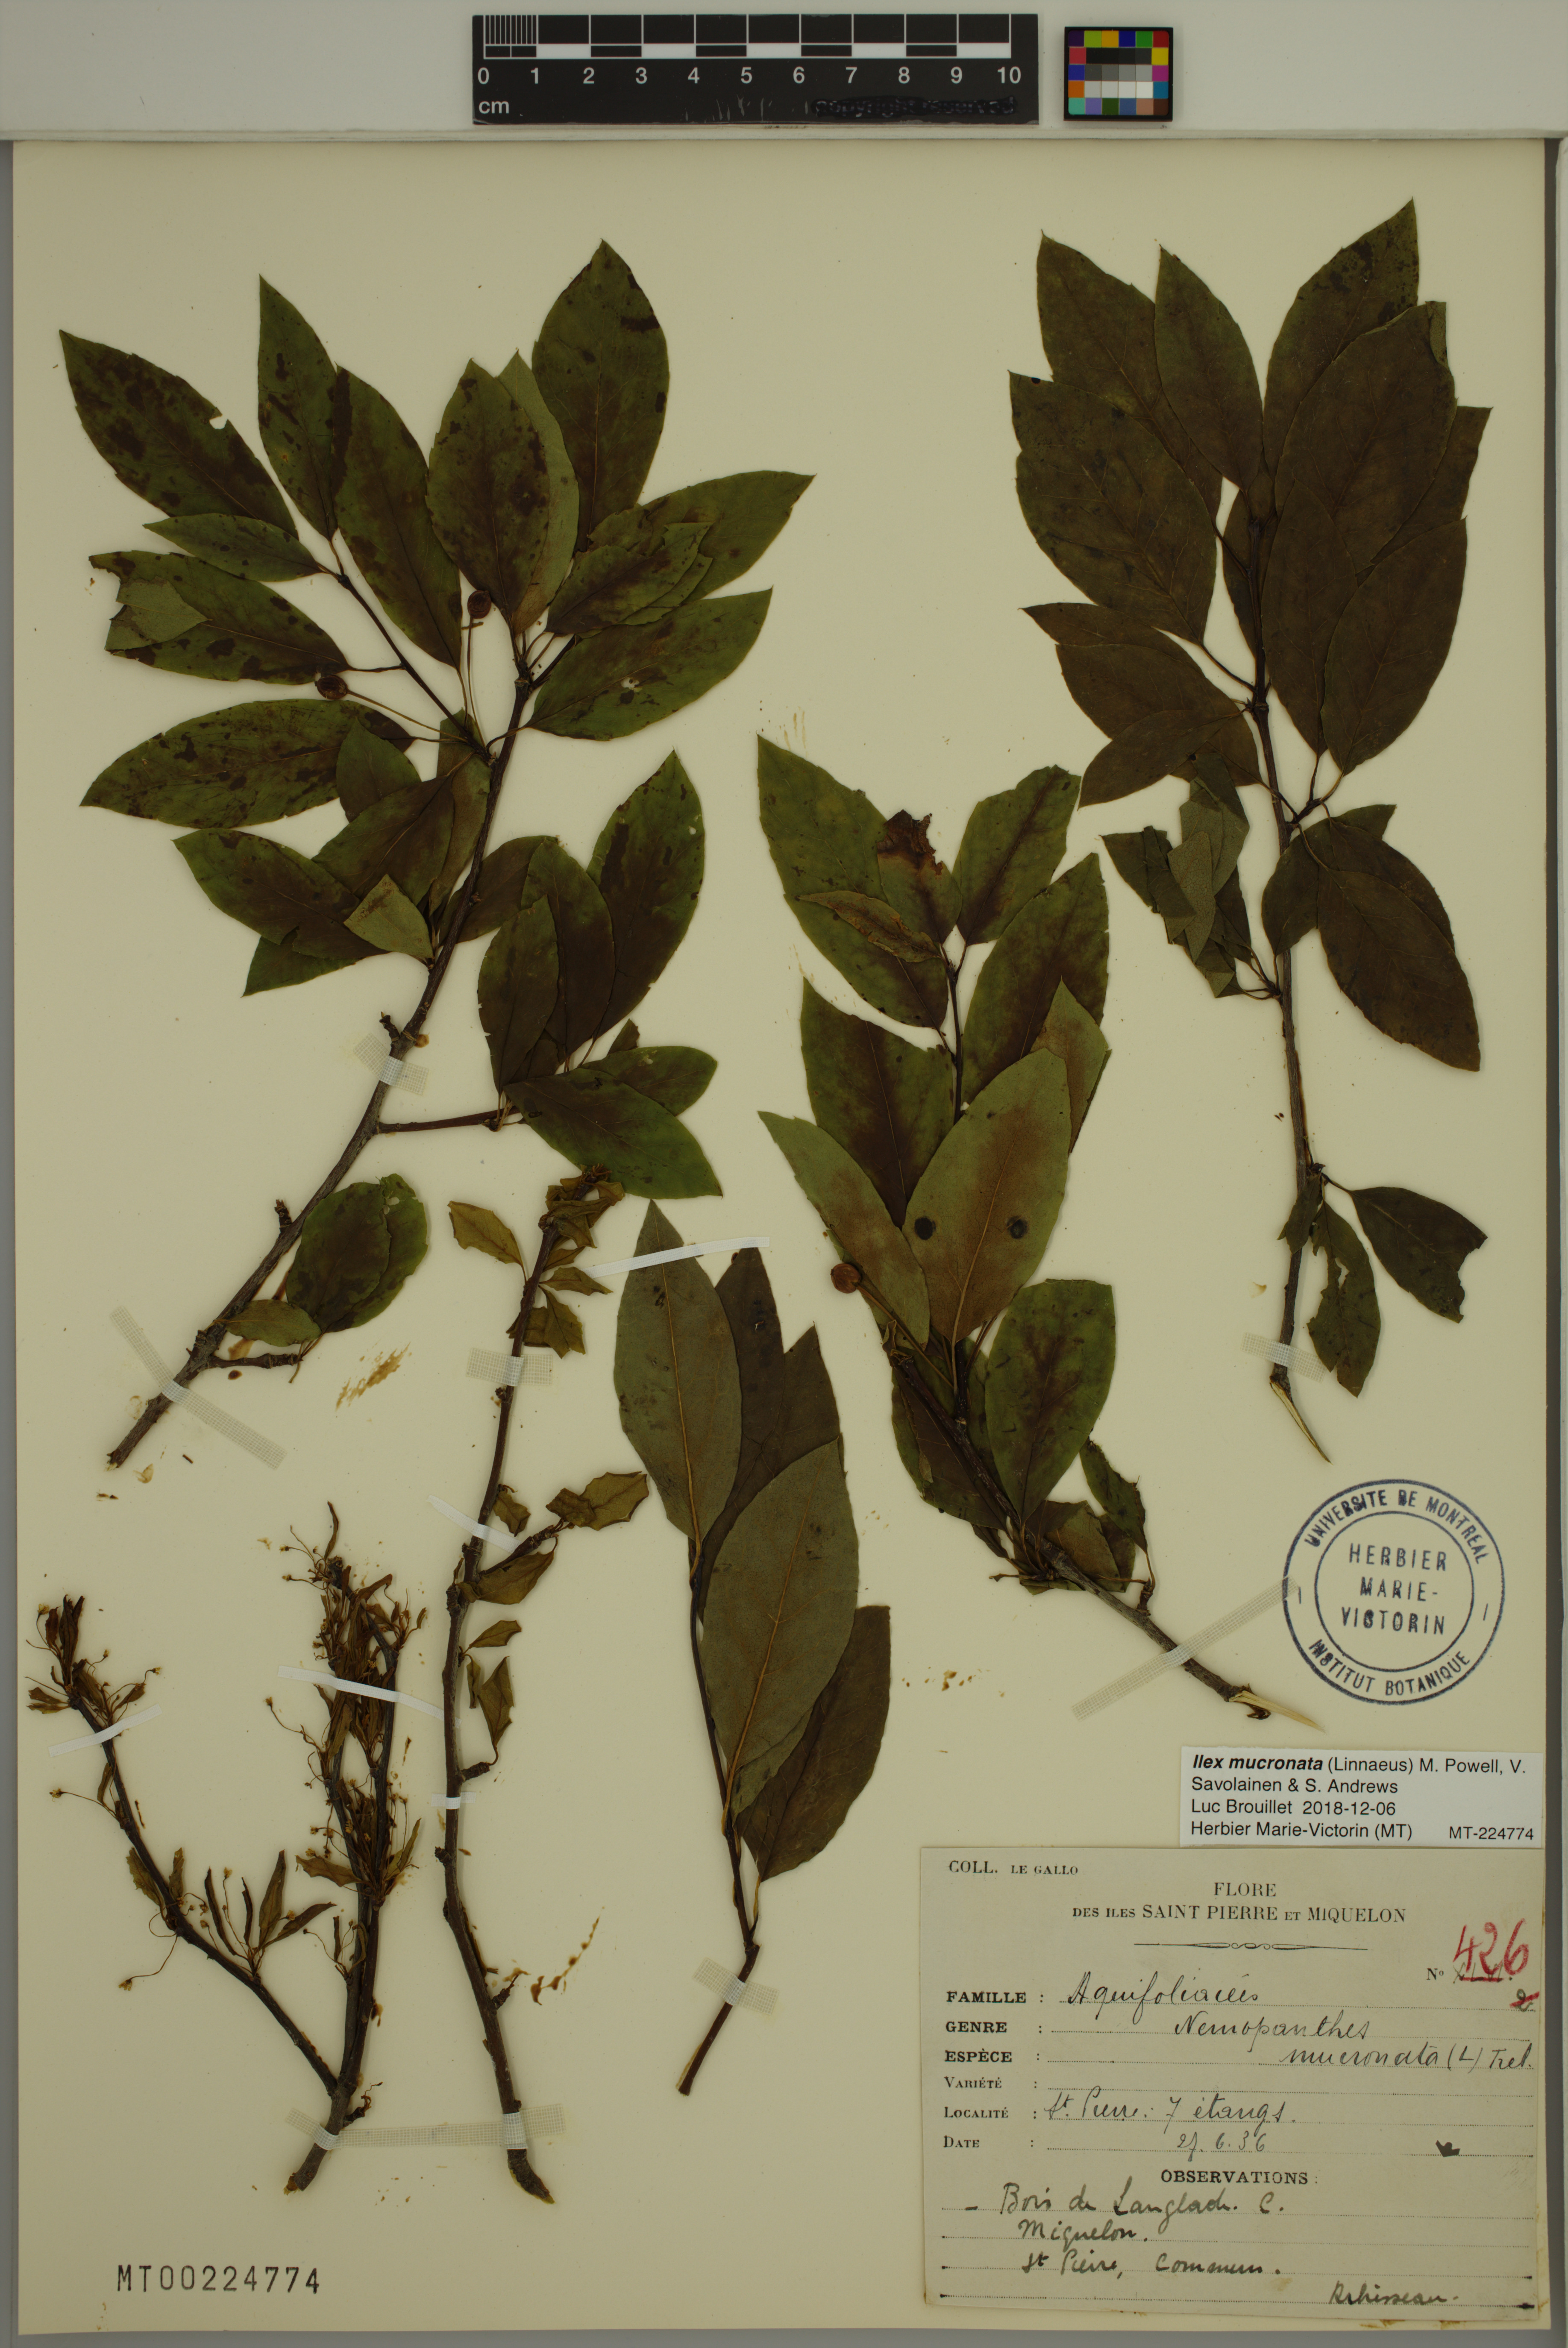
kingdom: Plantae
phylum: Tracheophyta
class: Magnoliopsida
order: Aquifoliales
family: Aquifoliaceae
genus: Ilex
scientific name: Ilex mucronata
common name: Catberry
